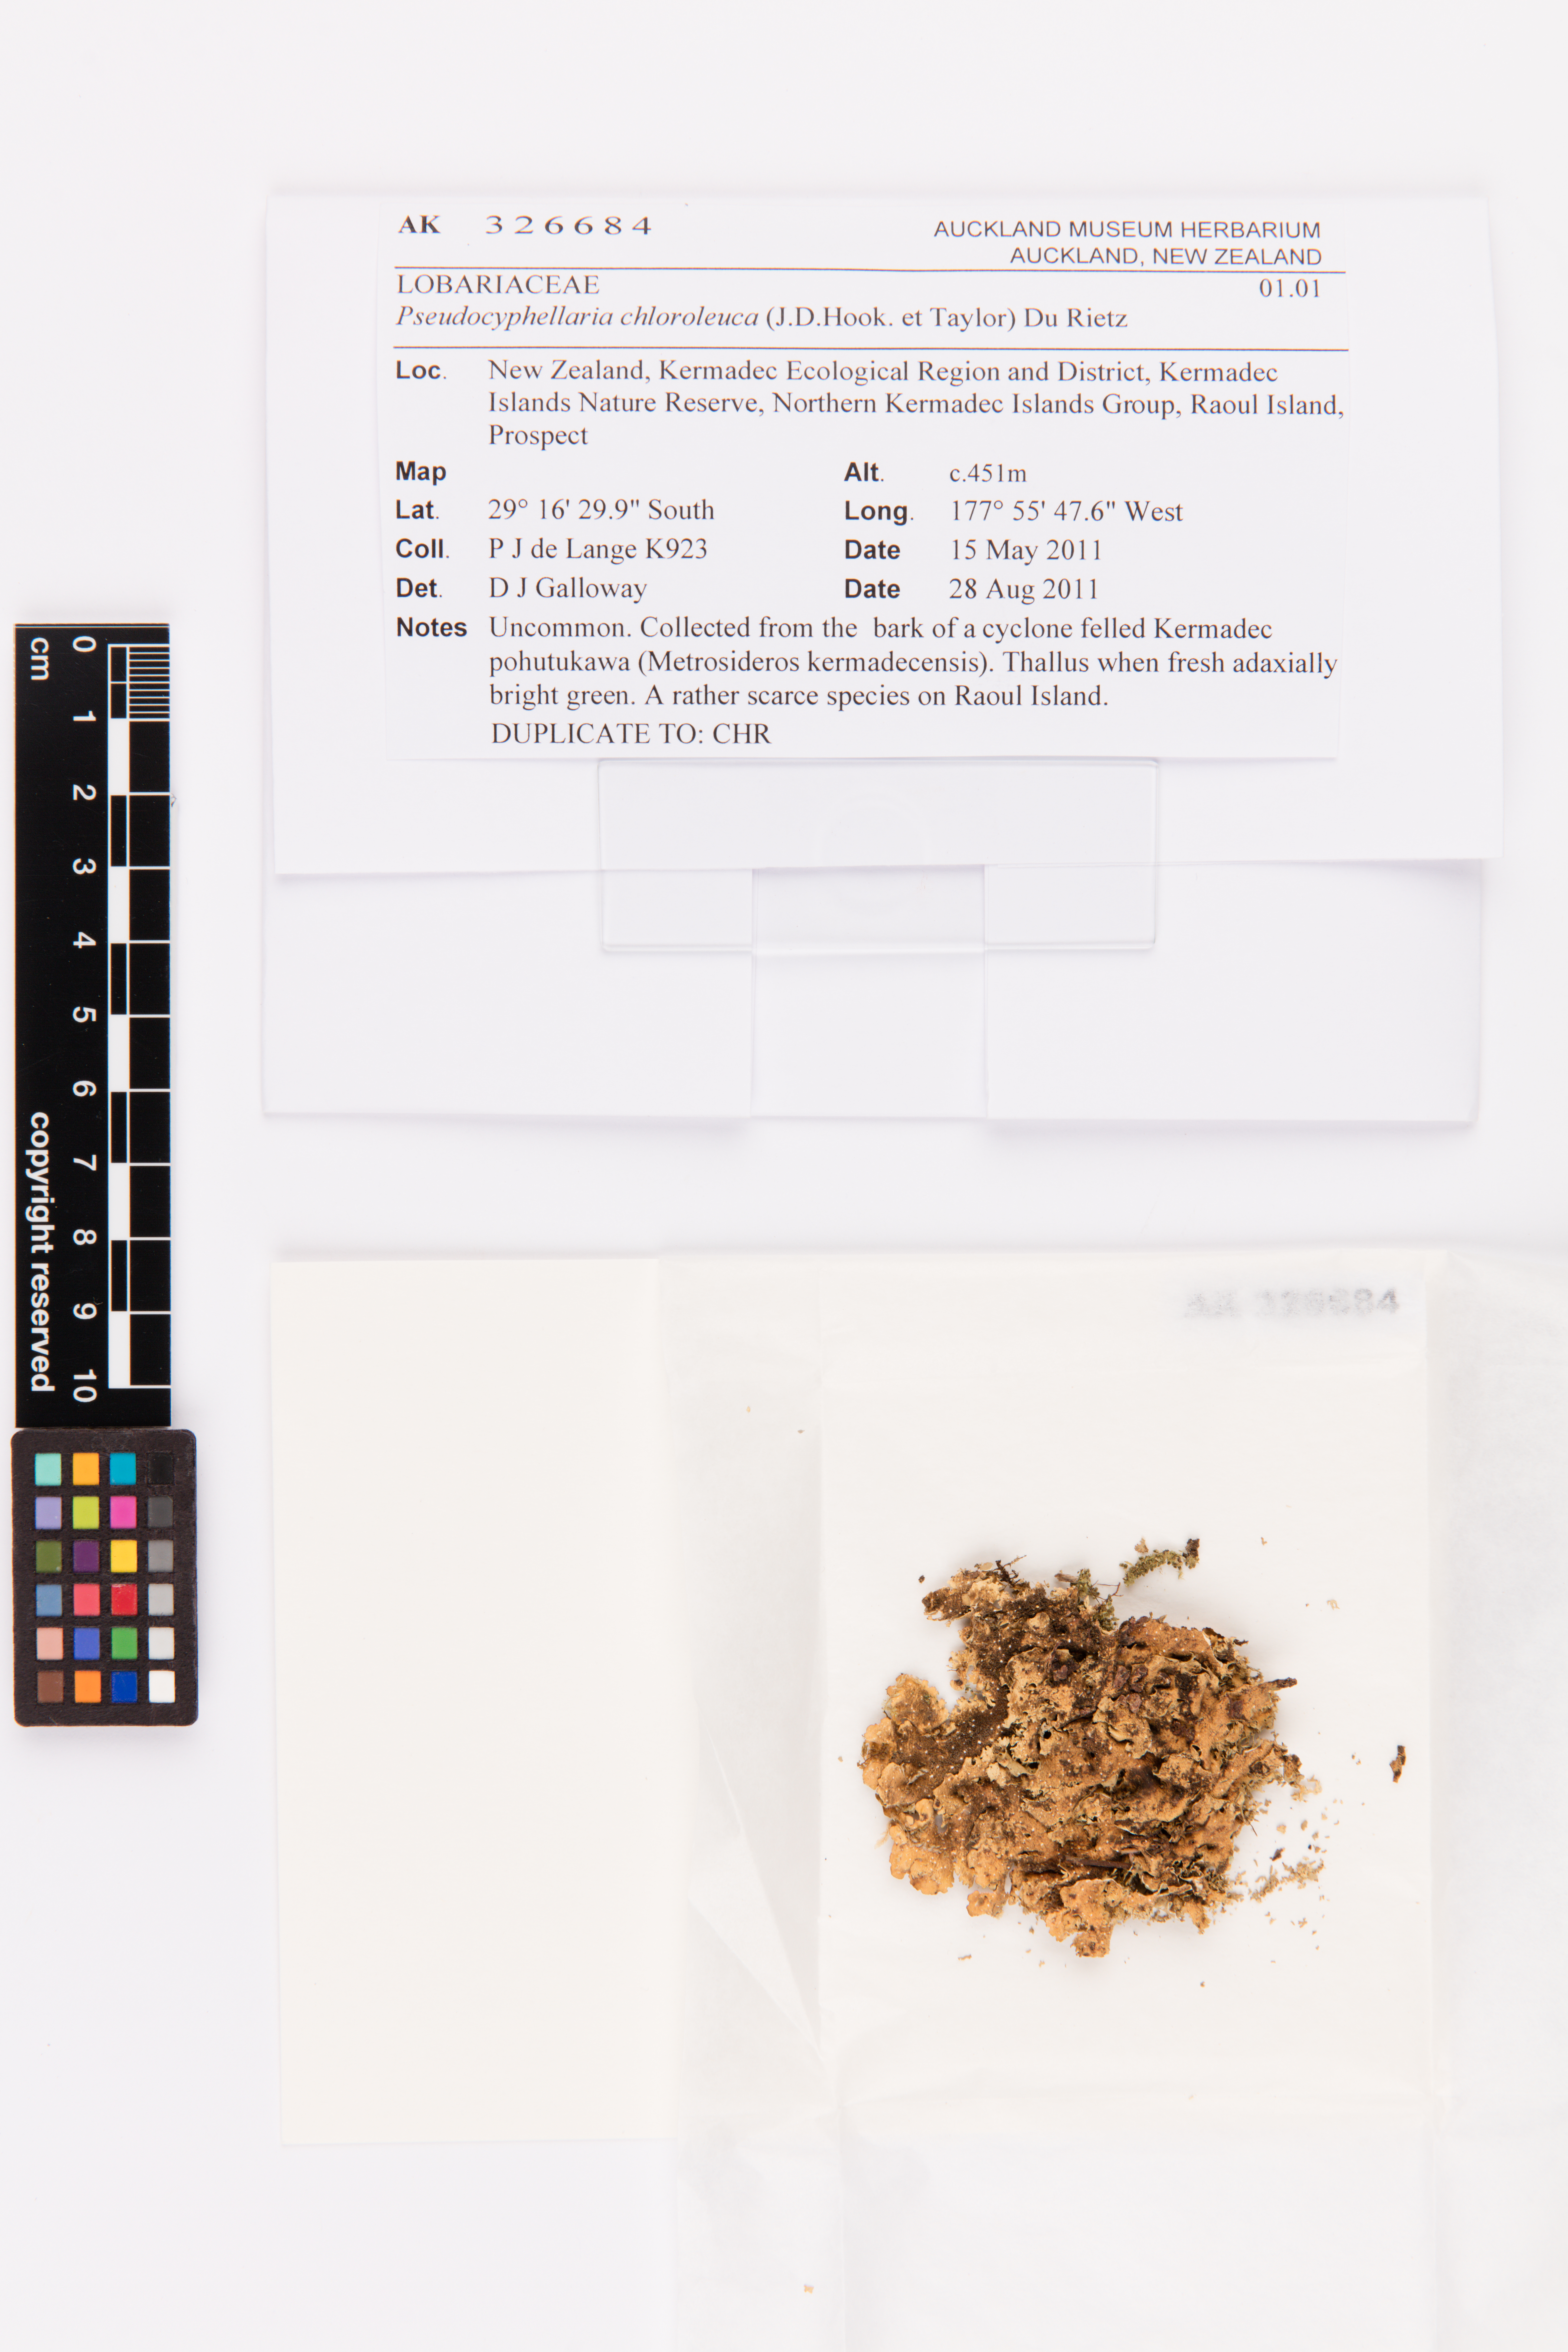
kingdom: Fungi
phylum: Ascomycota
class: Lecanoromycetes
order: Peltigerales
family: Lobariaceae
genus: Pseudocyphellaria
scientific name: Pseudocyphellaria chloroleuca
